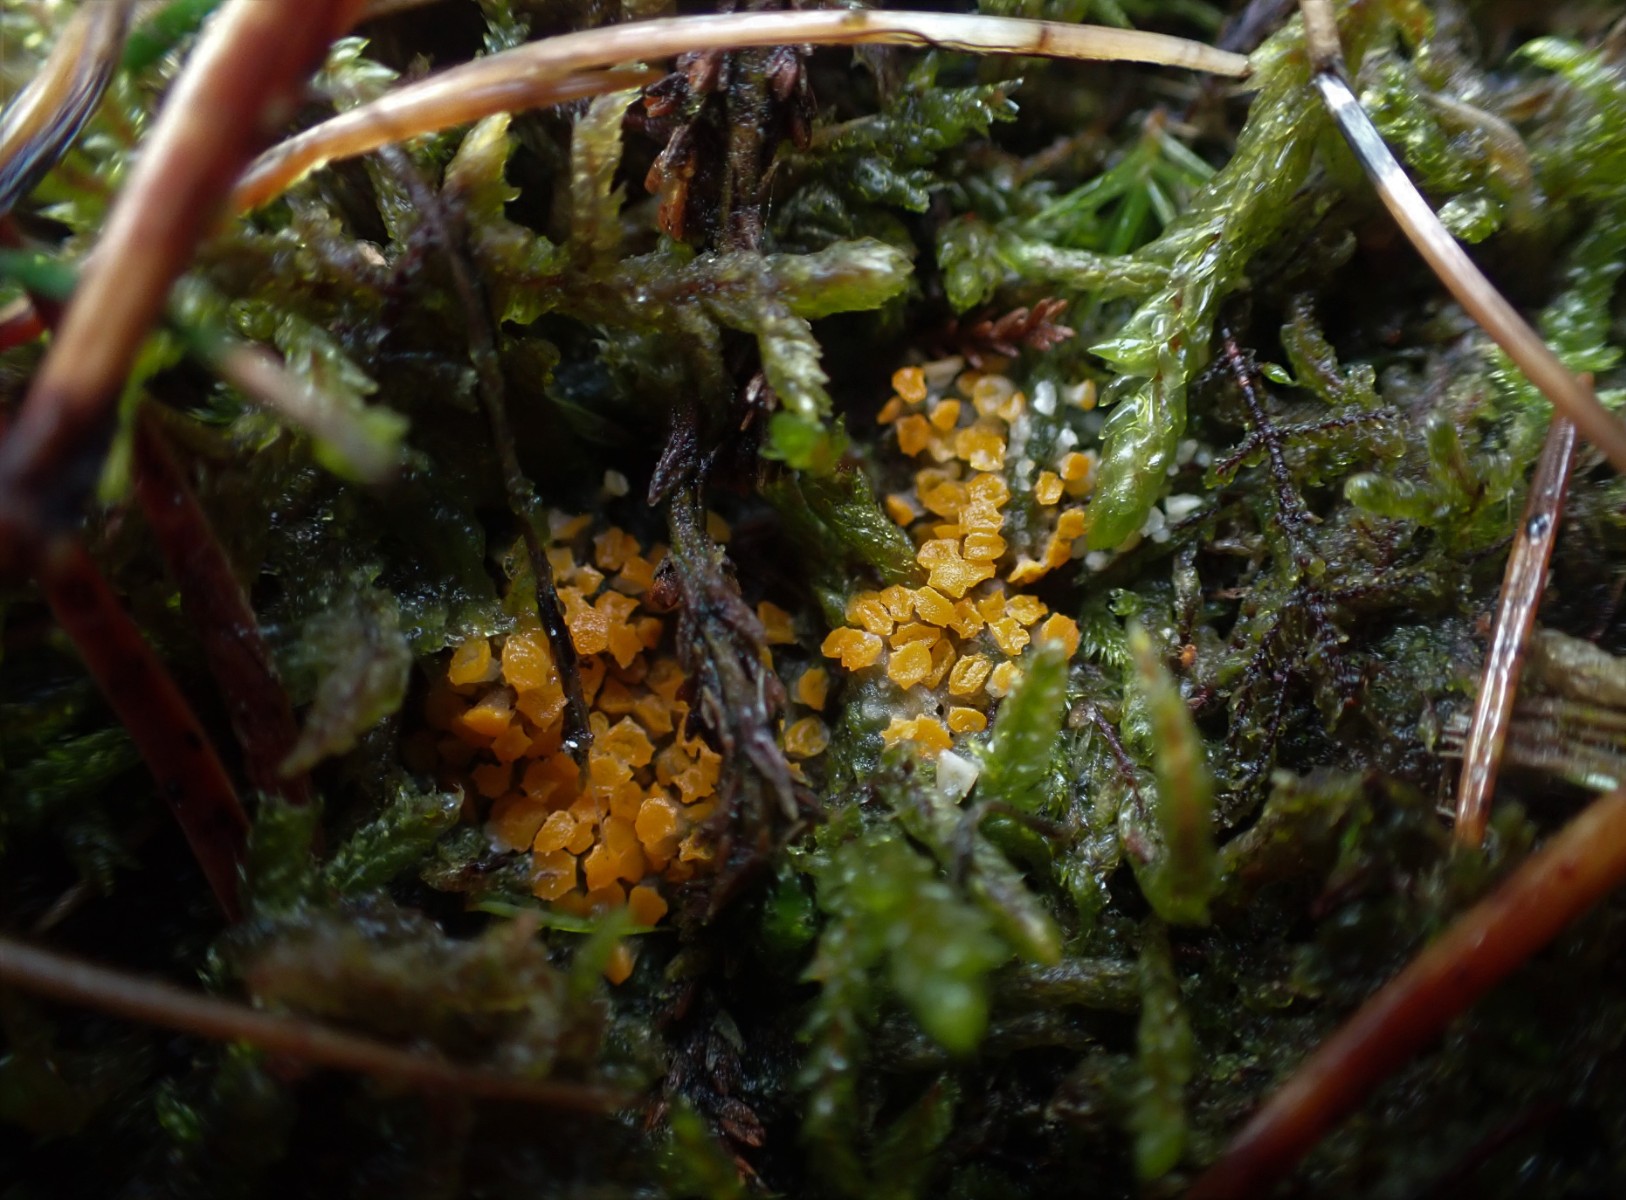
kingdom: Fungi
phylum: Ascomycota
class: Pezizomycetes
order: Pezizales
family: Pyronemataceae
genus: Byssonectria
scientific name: Byssonectria terrestris
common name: hjortebæger
